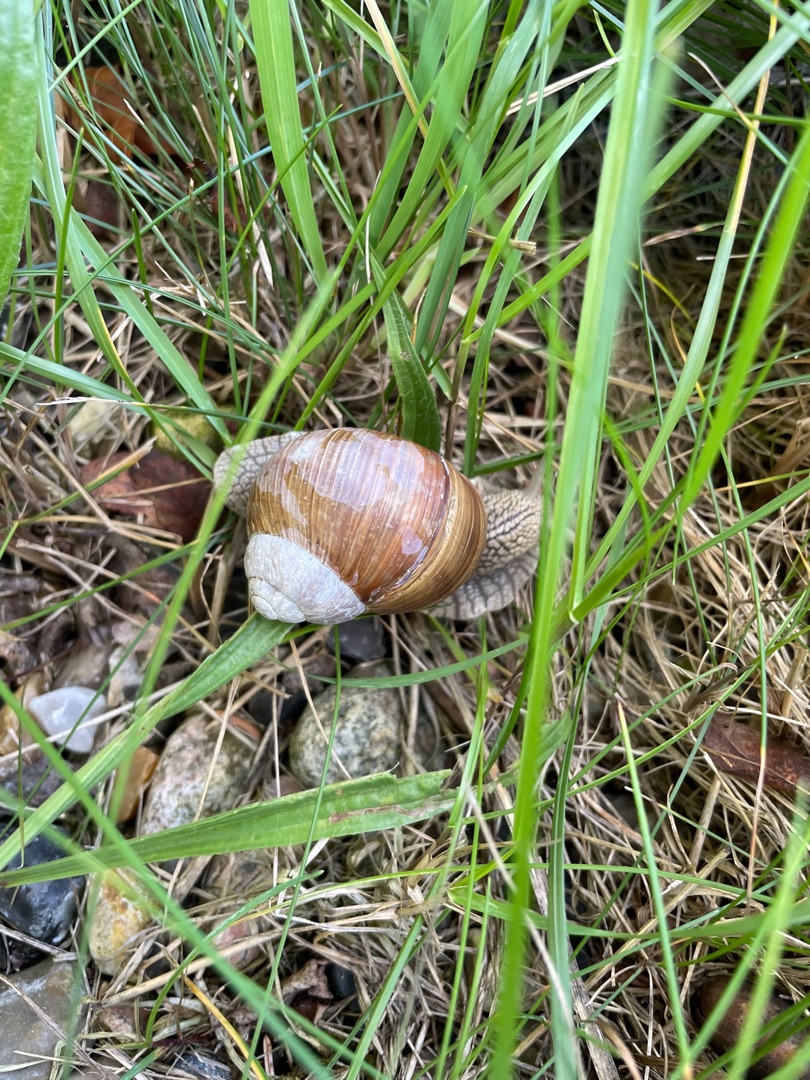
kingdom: Animalia
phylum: Mollusca
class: Gastropoda
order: Stylommatophora
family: Helicidae
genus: Helix
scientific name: Helix pomatia
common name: Vinbjergsnegl
